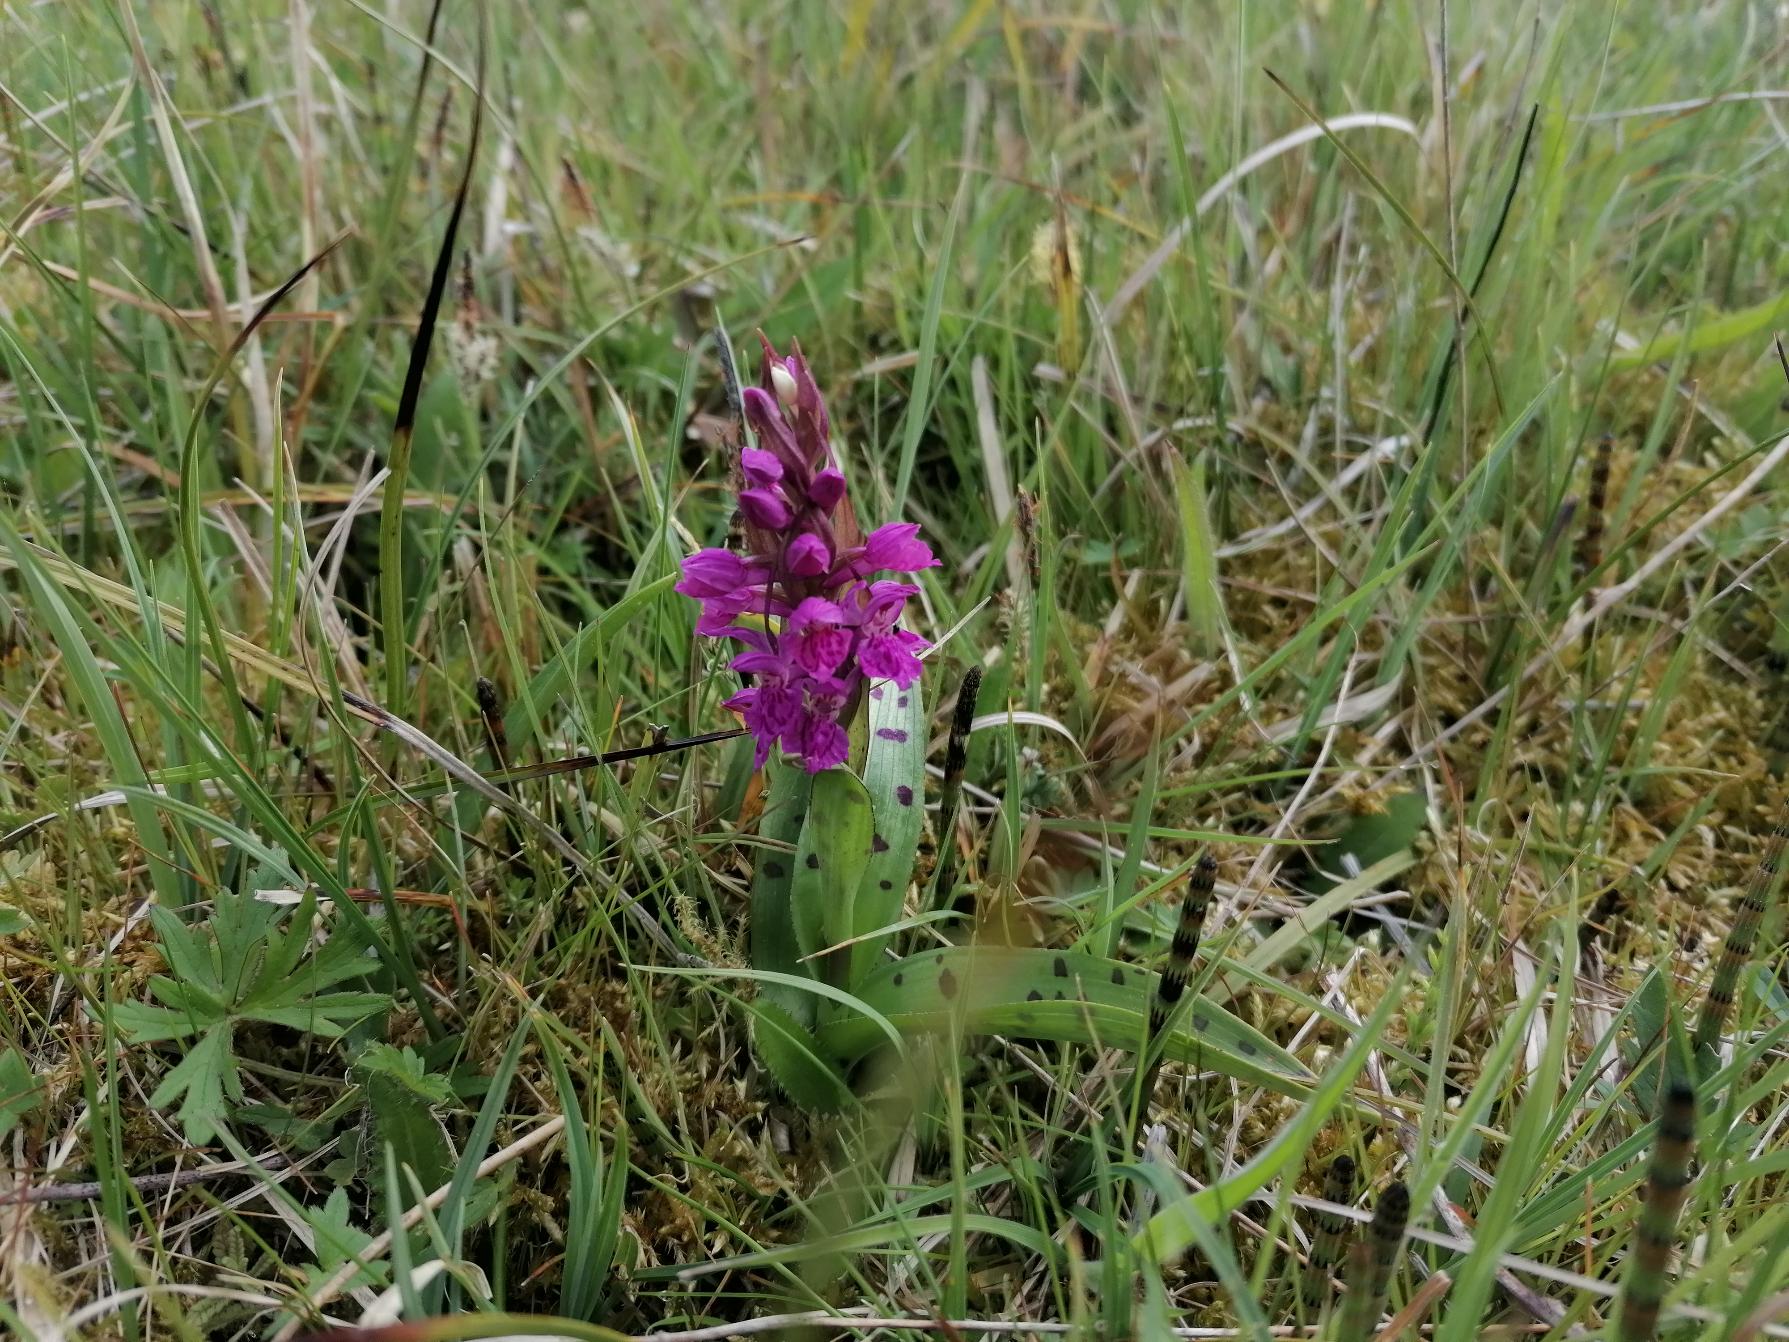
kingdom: Plantae
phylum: Tracheophyta
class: Liliopsida
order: Asparagales
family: Orchidaceae
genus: Dactylorhiza
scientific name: Dactylorhiza majalis
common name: Maj-gøgeurt
